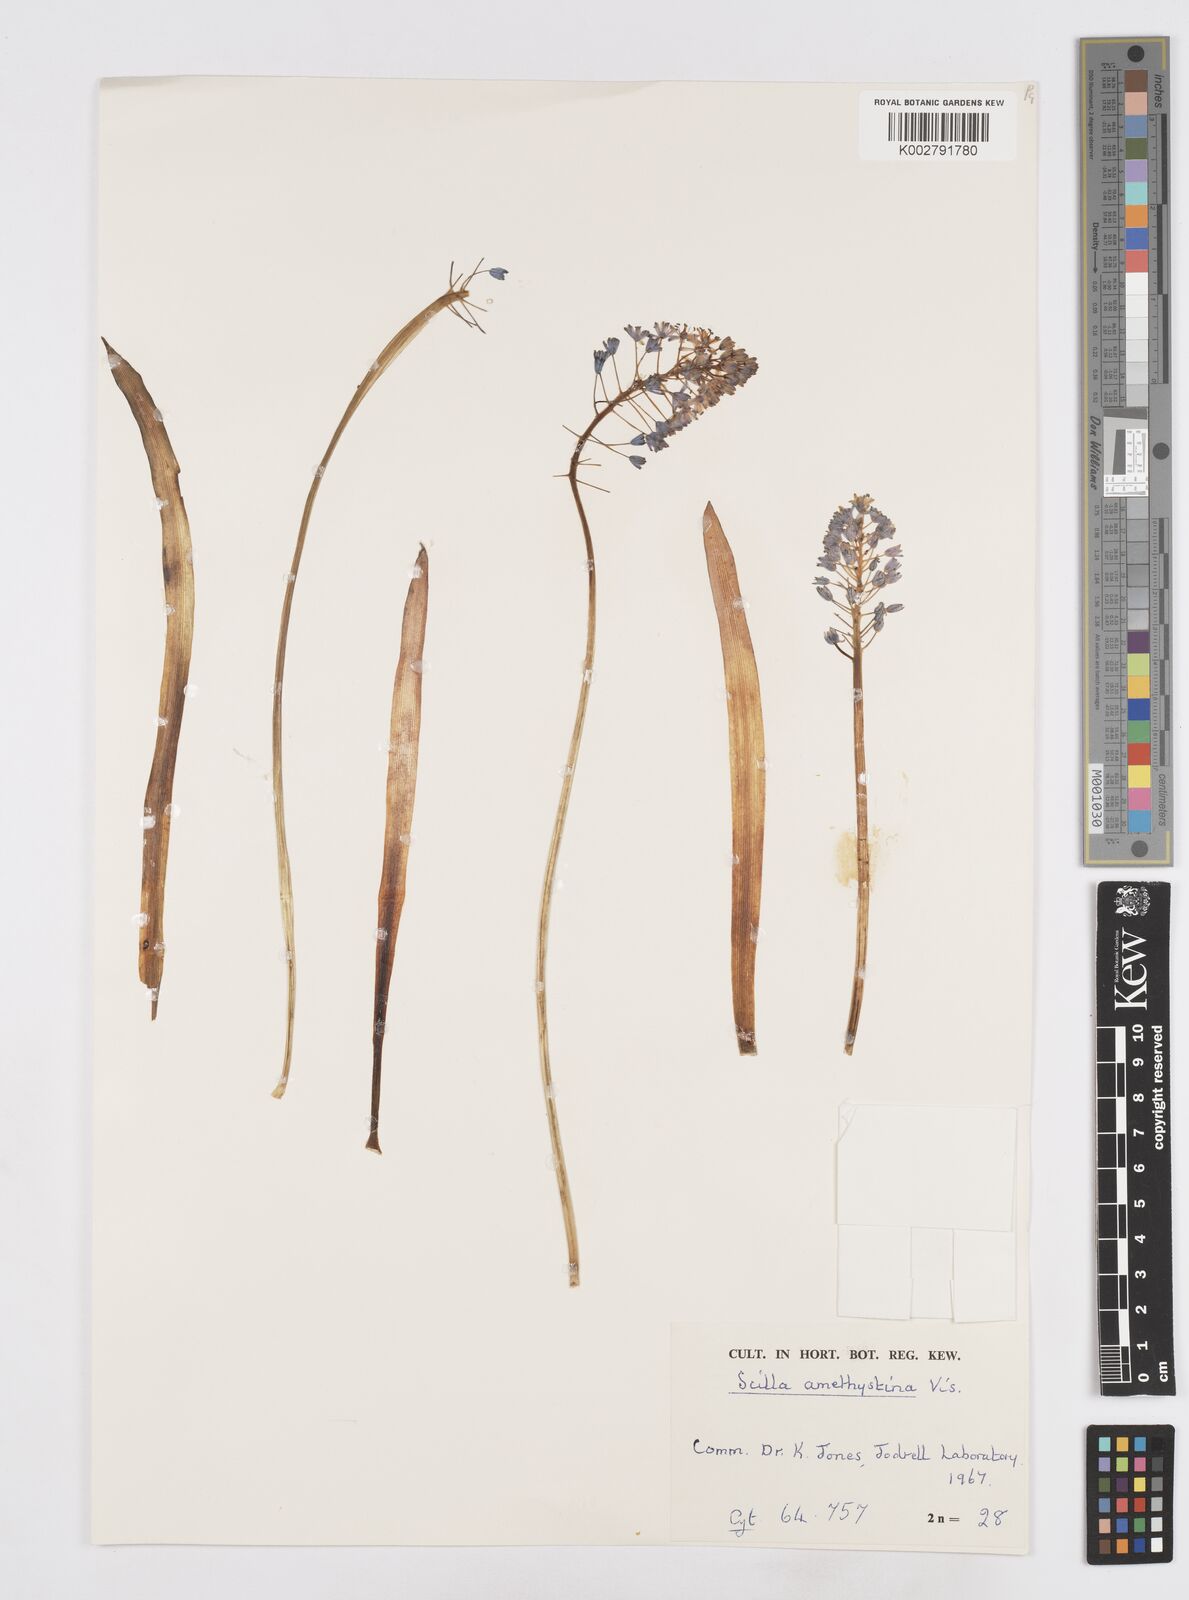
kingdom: Plantae
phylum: Tracheophyta
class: Liliopsida
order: Asparagales
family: Asparagaceae
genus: Scilla
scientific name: Scilla litardierei
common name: Amethyst meadow squill
